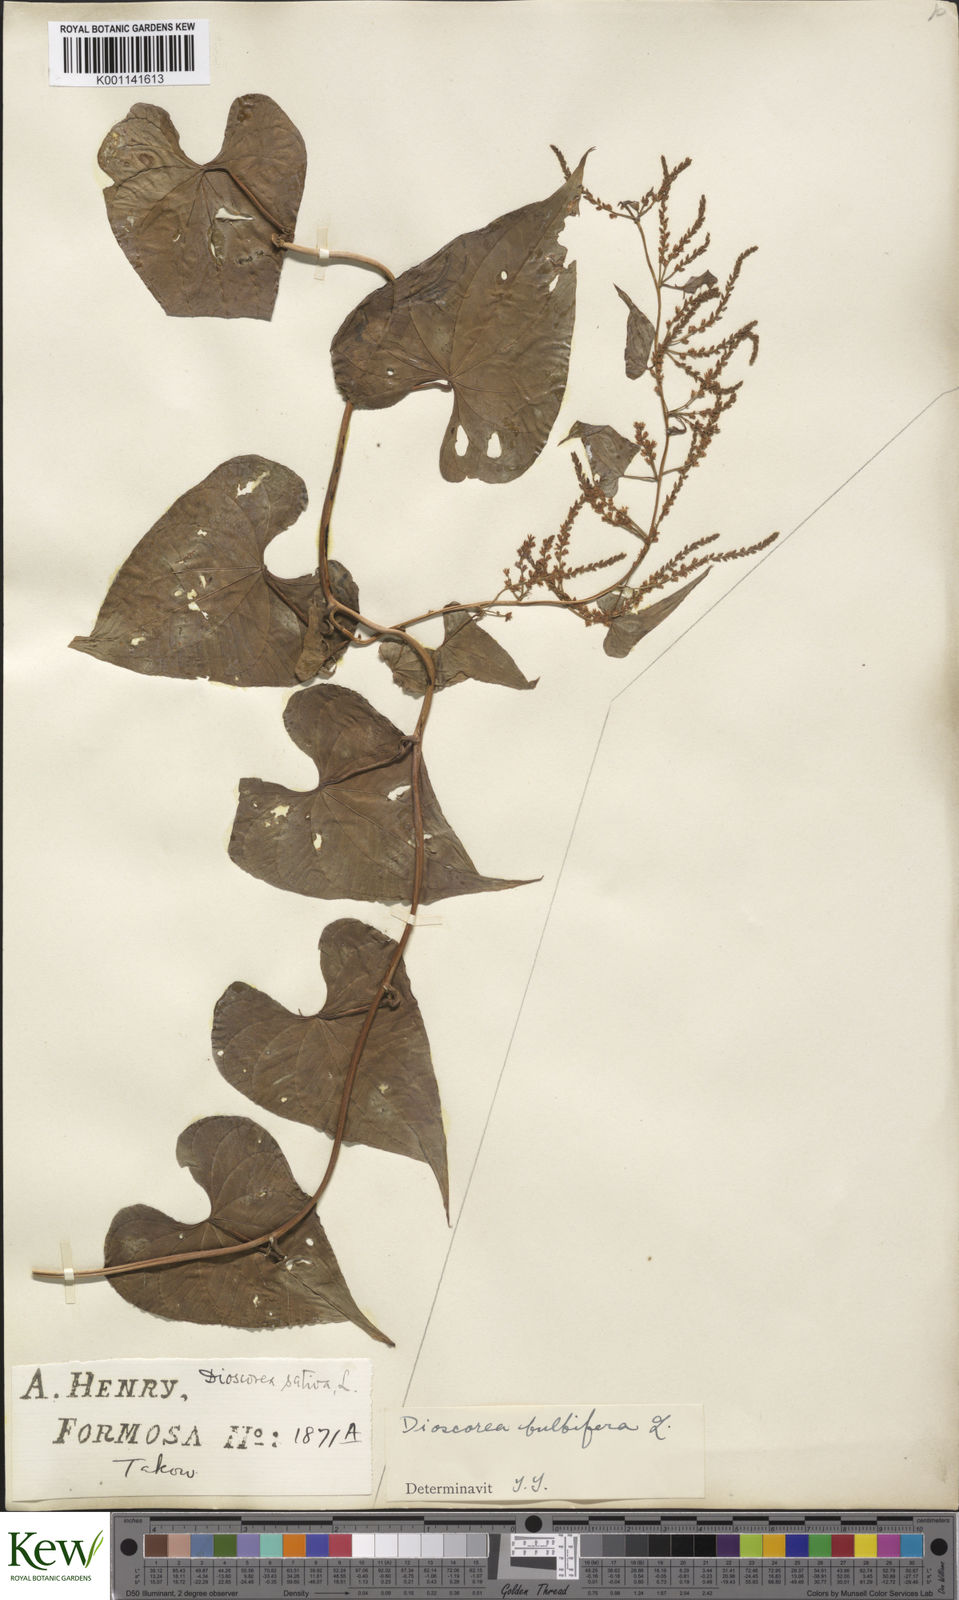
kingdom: Plantae
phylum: Tracheophyta
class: Liliopsida
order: Dioscoreales
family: Dioscoreaceae
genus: Dioscorea
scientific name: Dioscorea bulbifera
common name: Air yam
